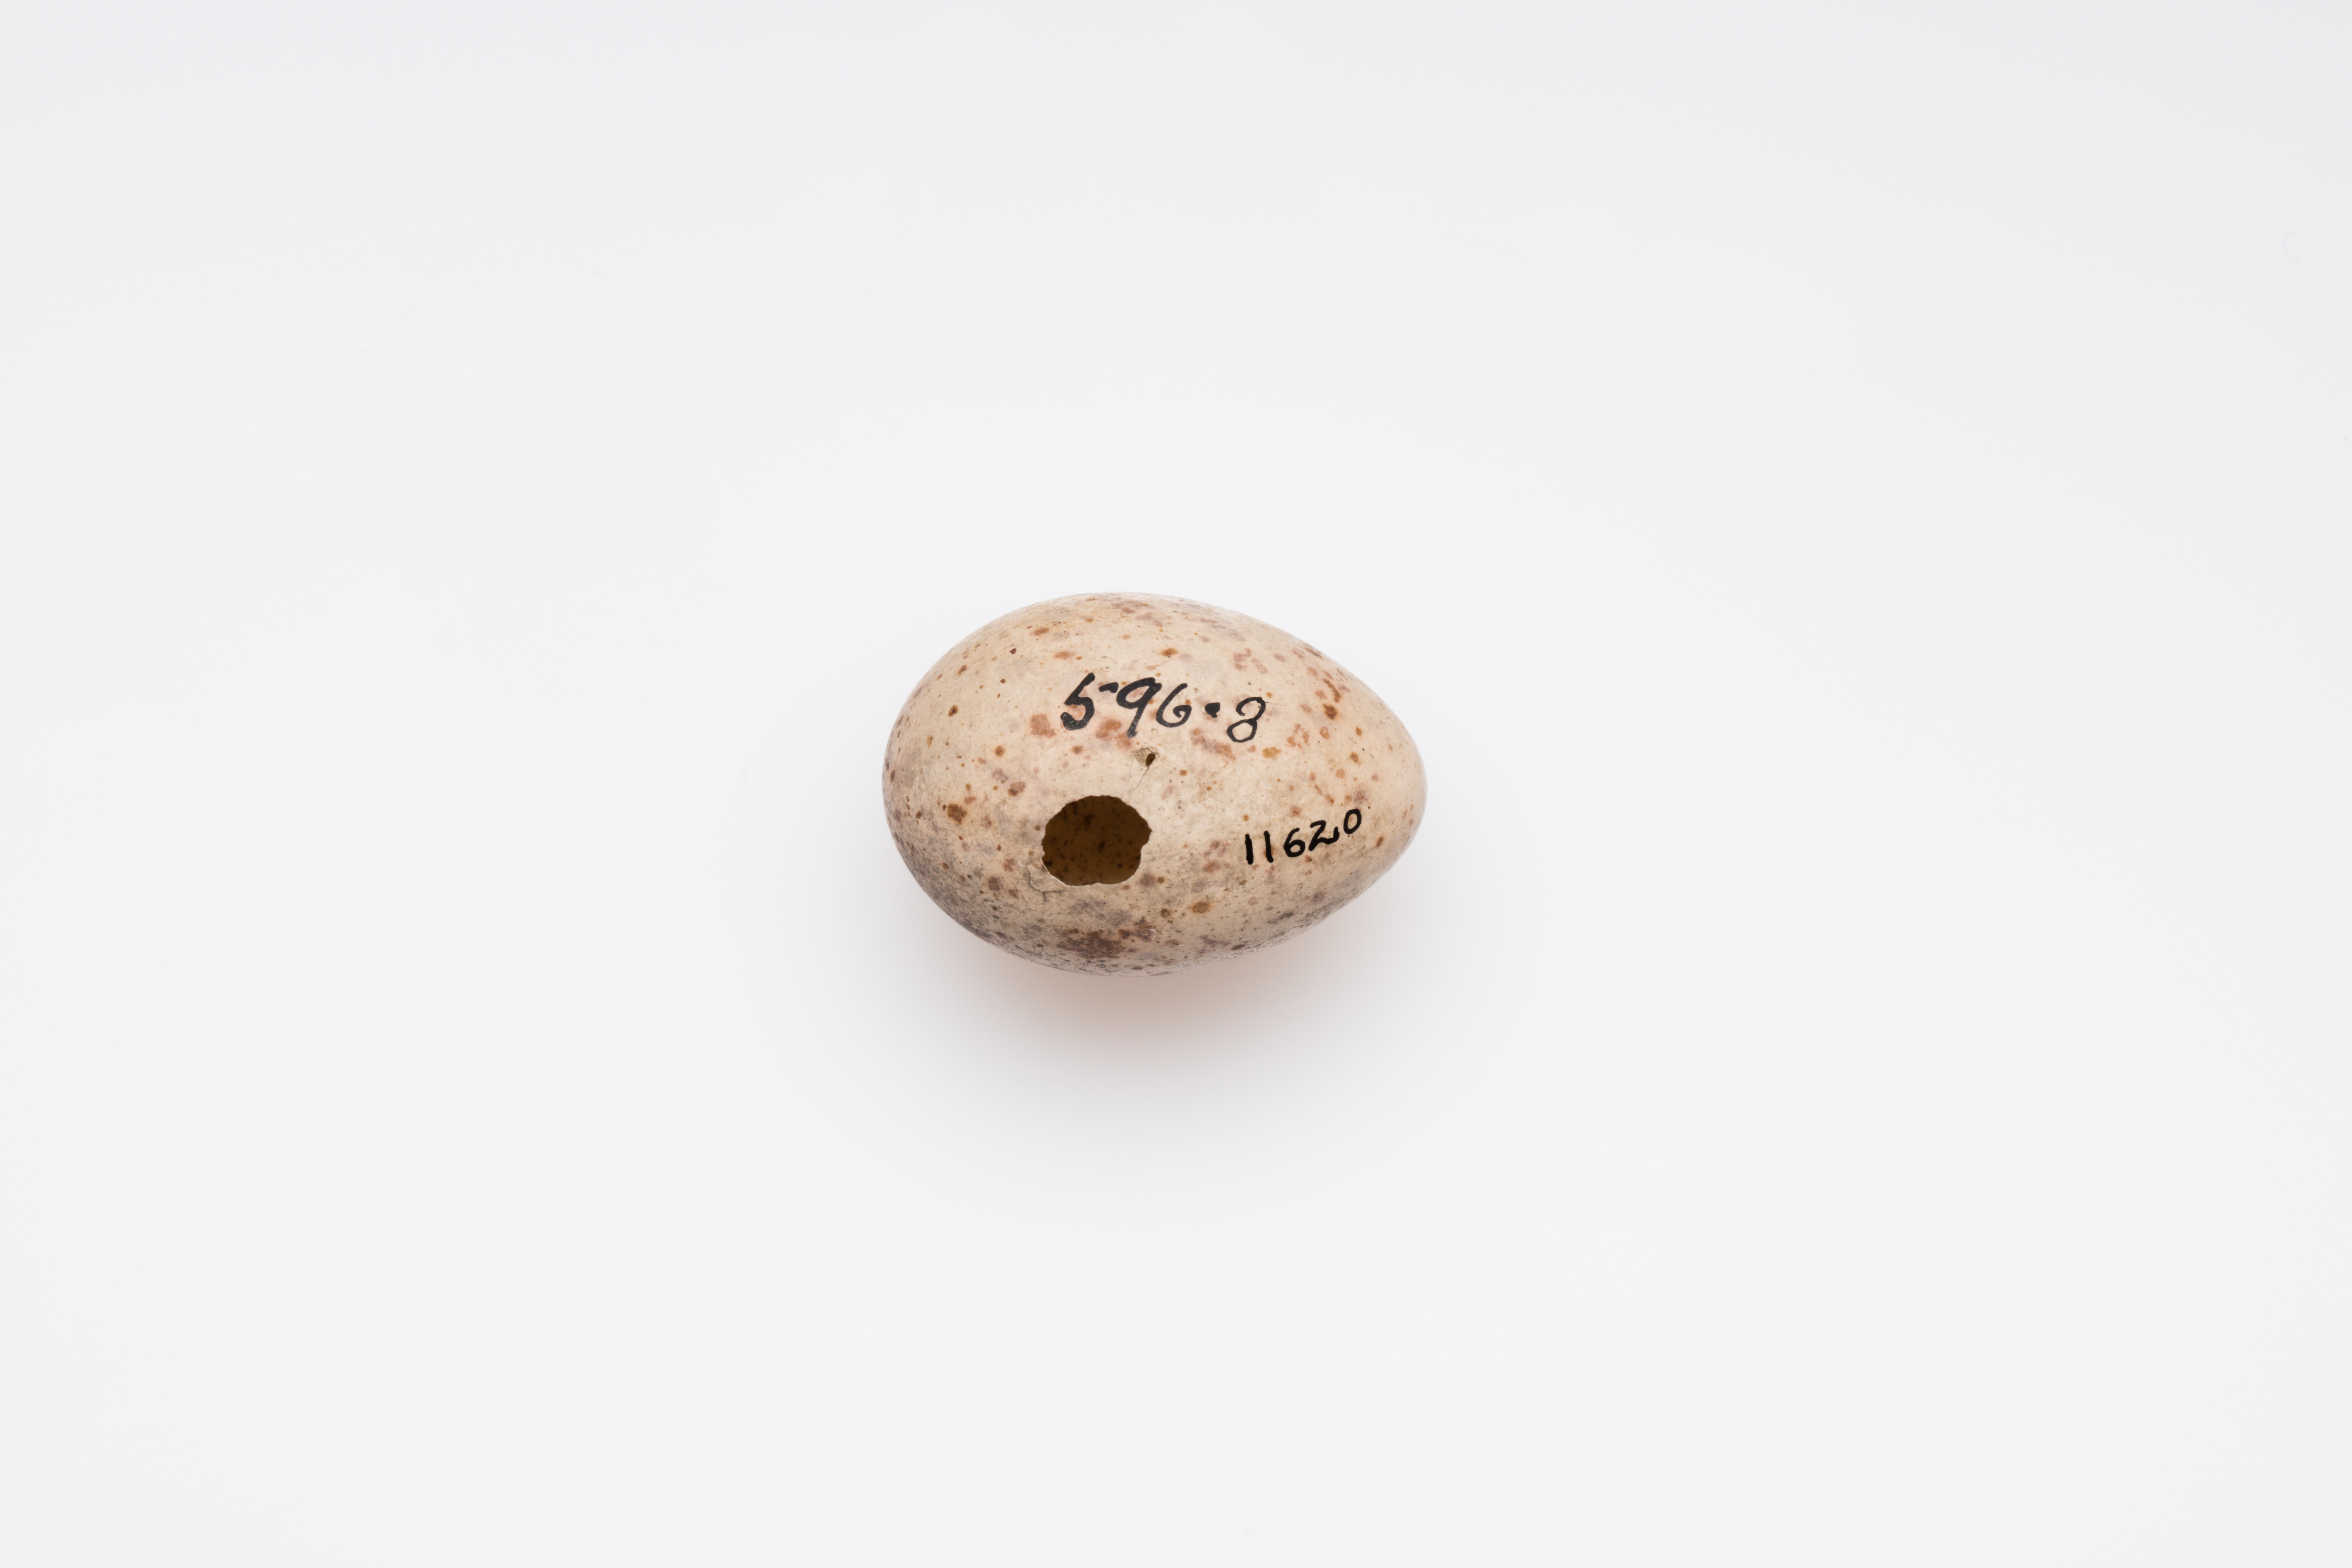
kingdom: Animalia
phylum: Chordata
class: Aves
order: Passeriformes
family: Turdidae
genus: Turdus
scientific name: Turdus viscivorus
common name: Mistle thrush
